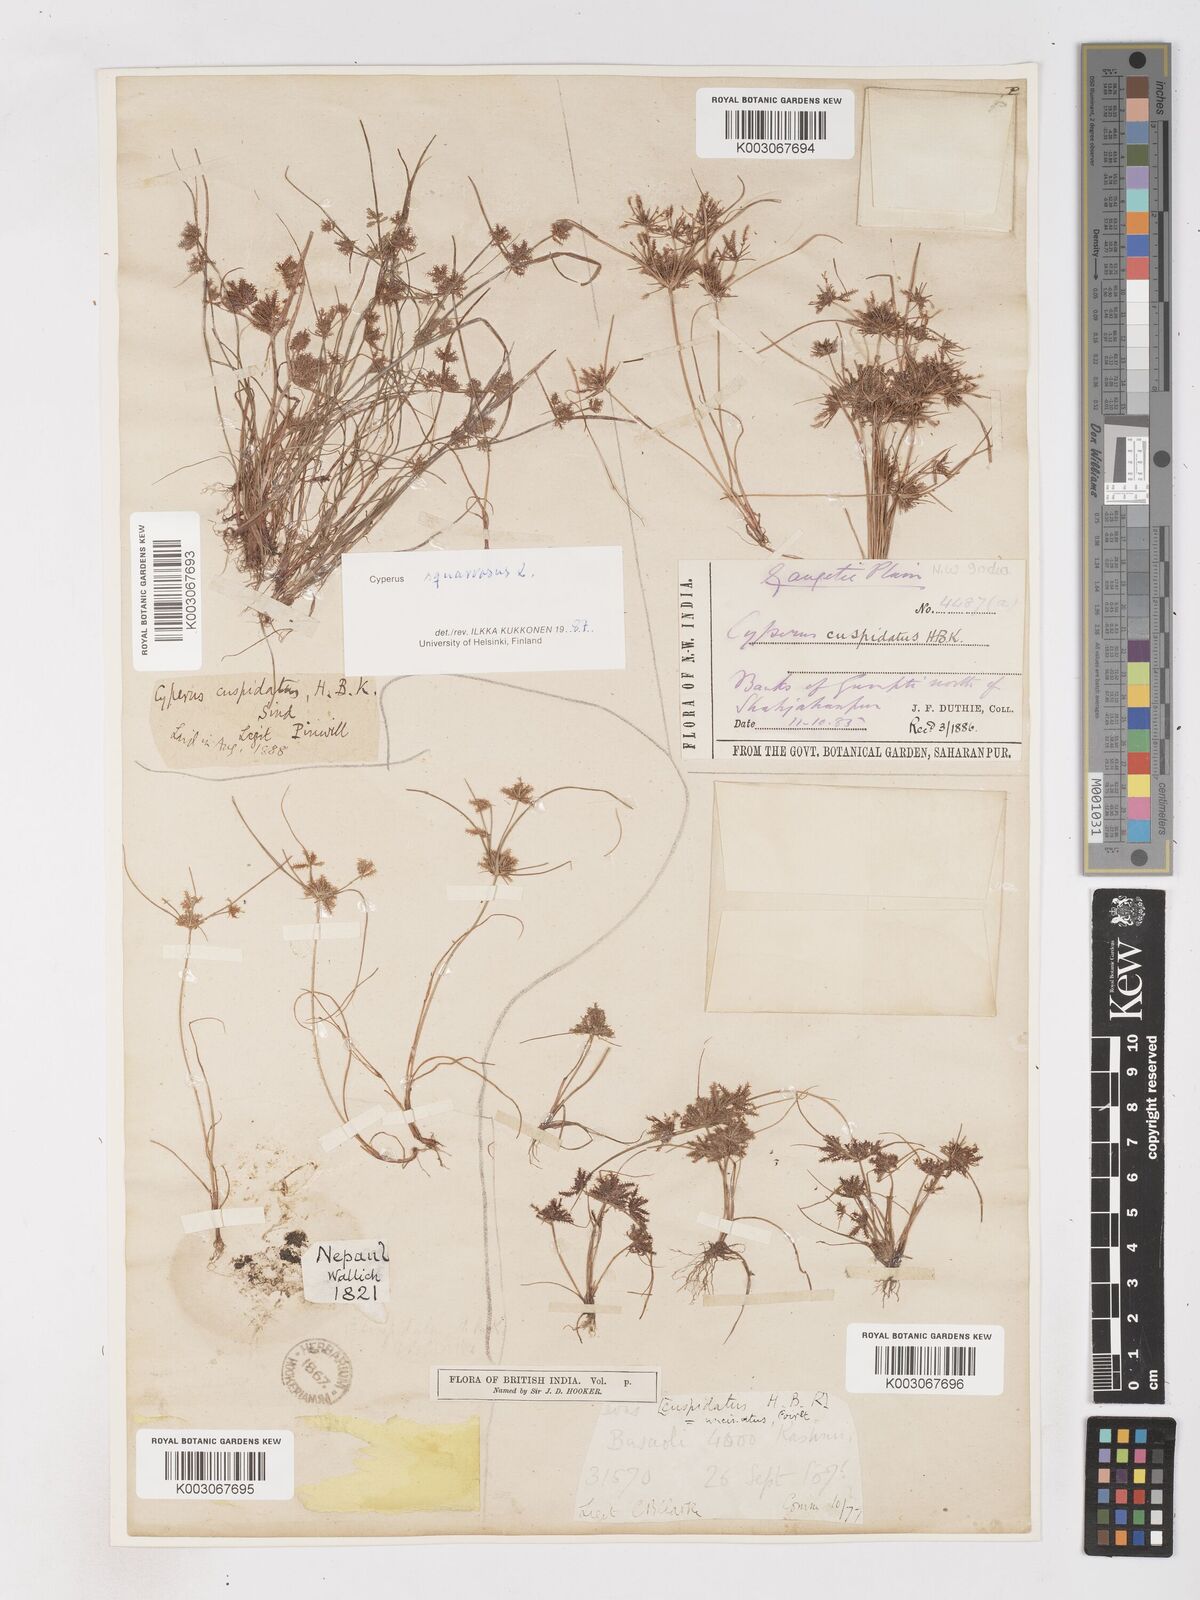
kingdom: Plantae
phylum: Tracheophyta
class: Liliopsida
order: Poales
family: Cyperaceae
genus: Cyperus
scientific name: Cyperus squarrosus
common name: Awned cyperus
